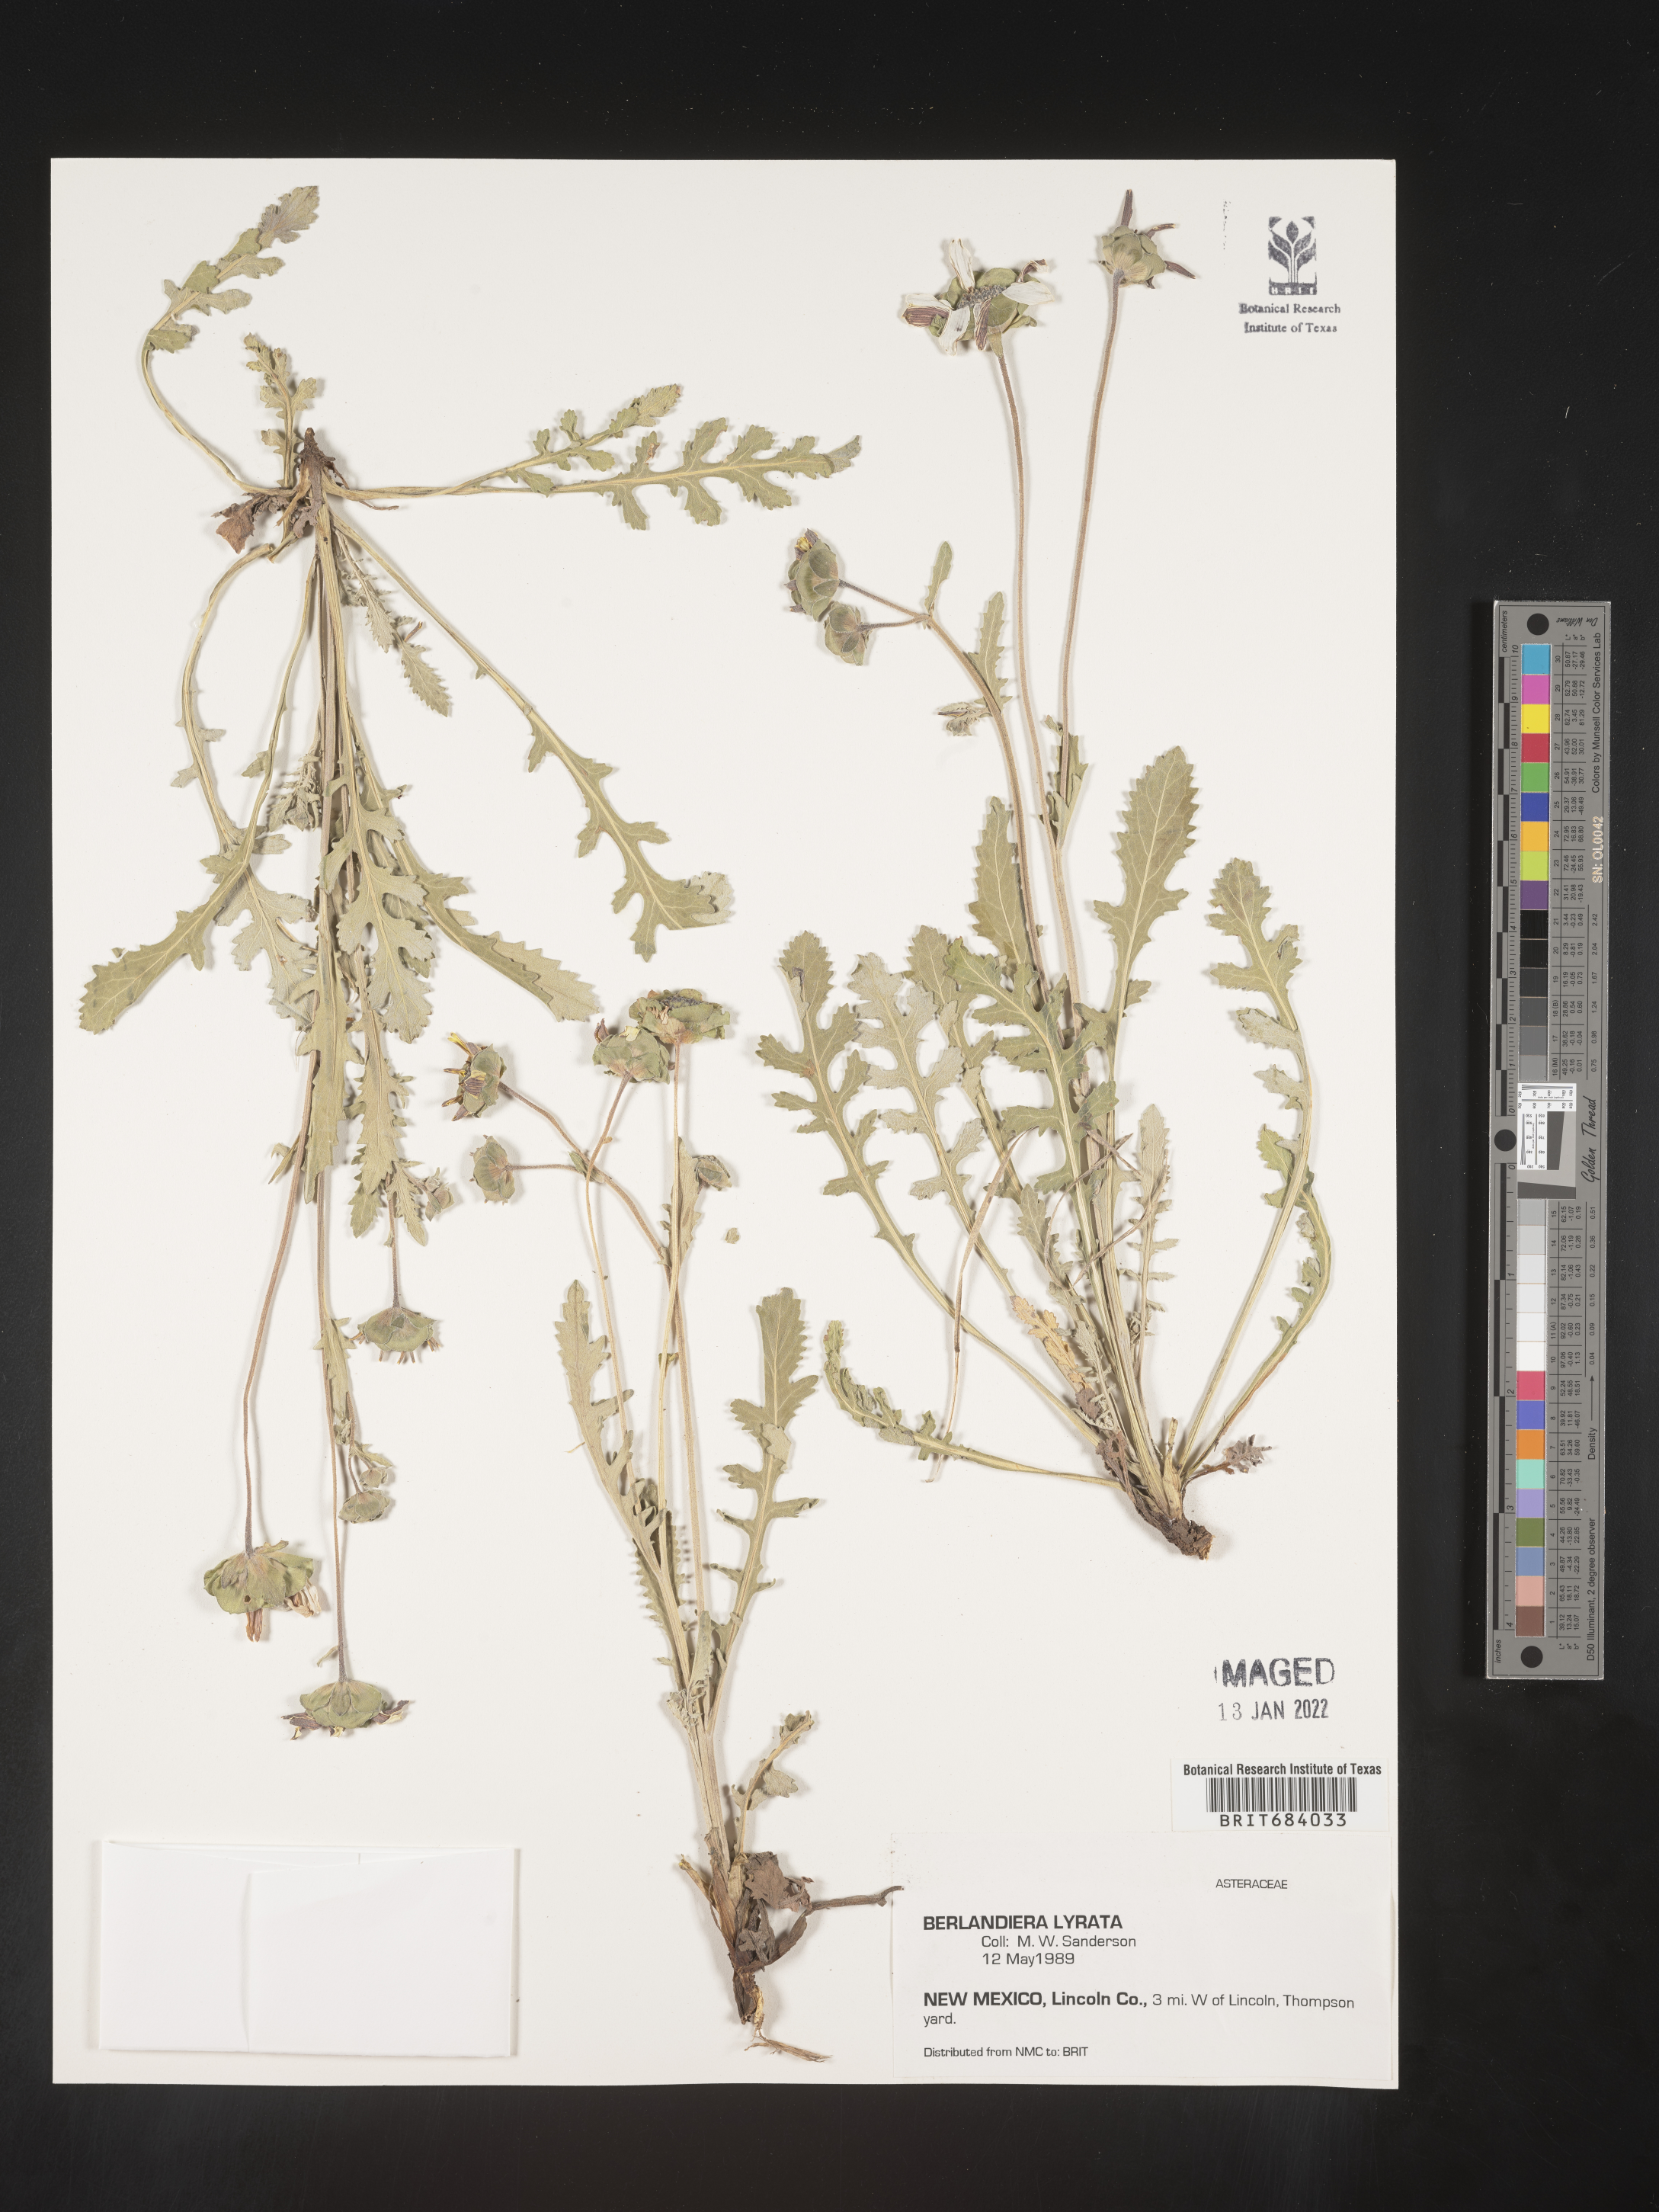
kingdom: Plantae
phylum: Tracheophyta
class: Magnoliopsida
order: Asterales
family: Asteraceae
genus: Berlandiera
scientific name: Berlandiera lyrata
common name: Chocolate-flower
